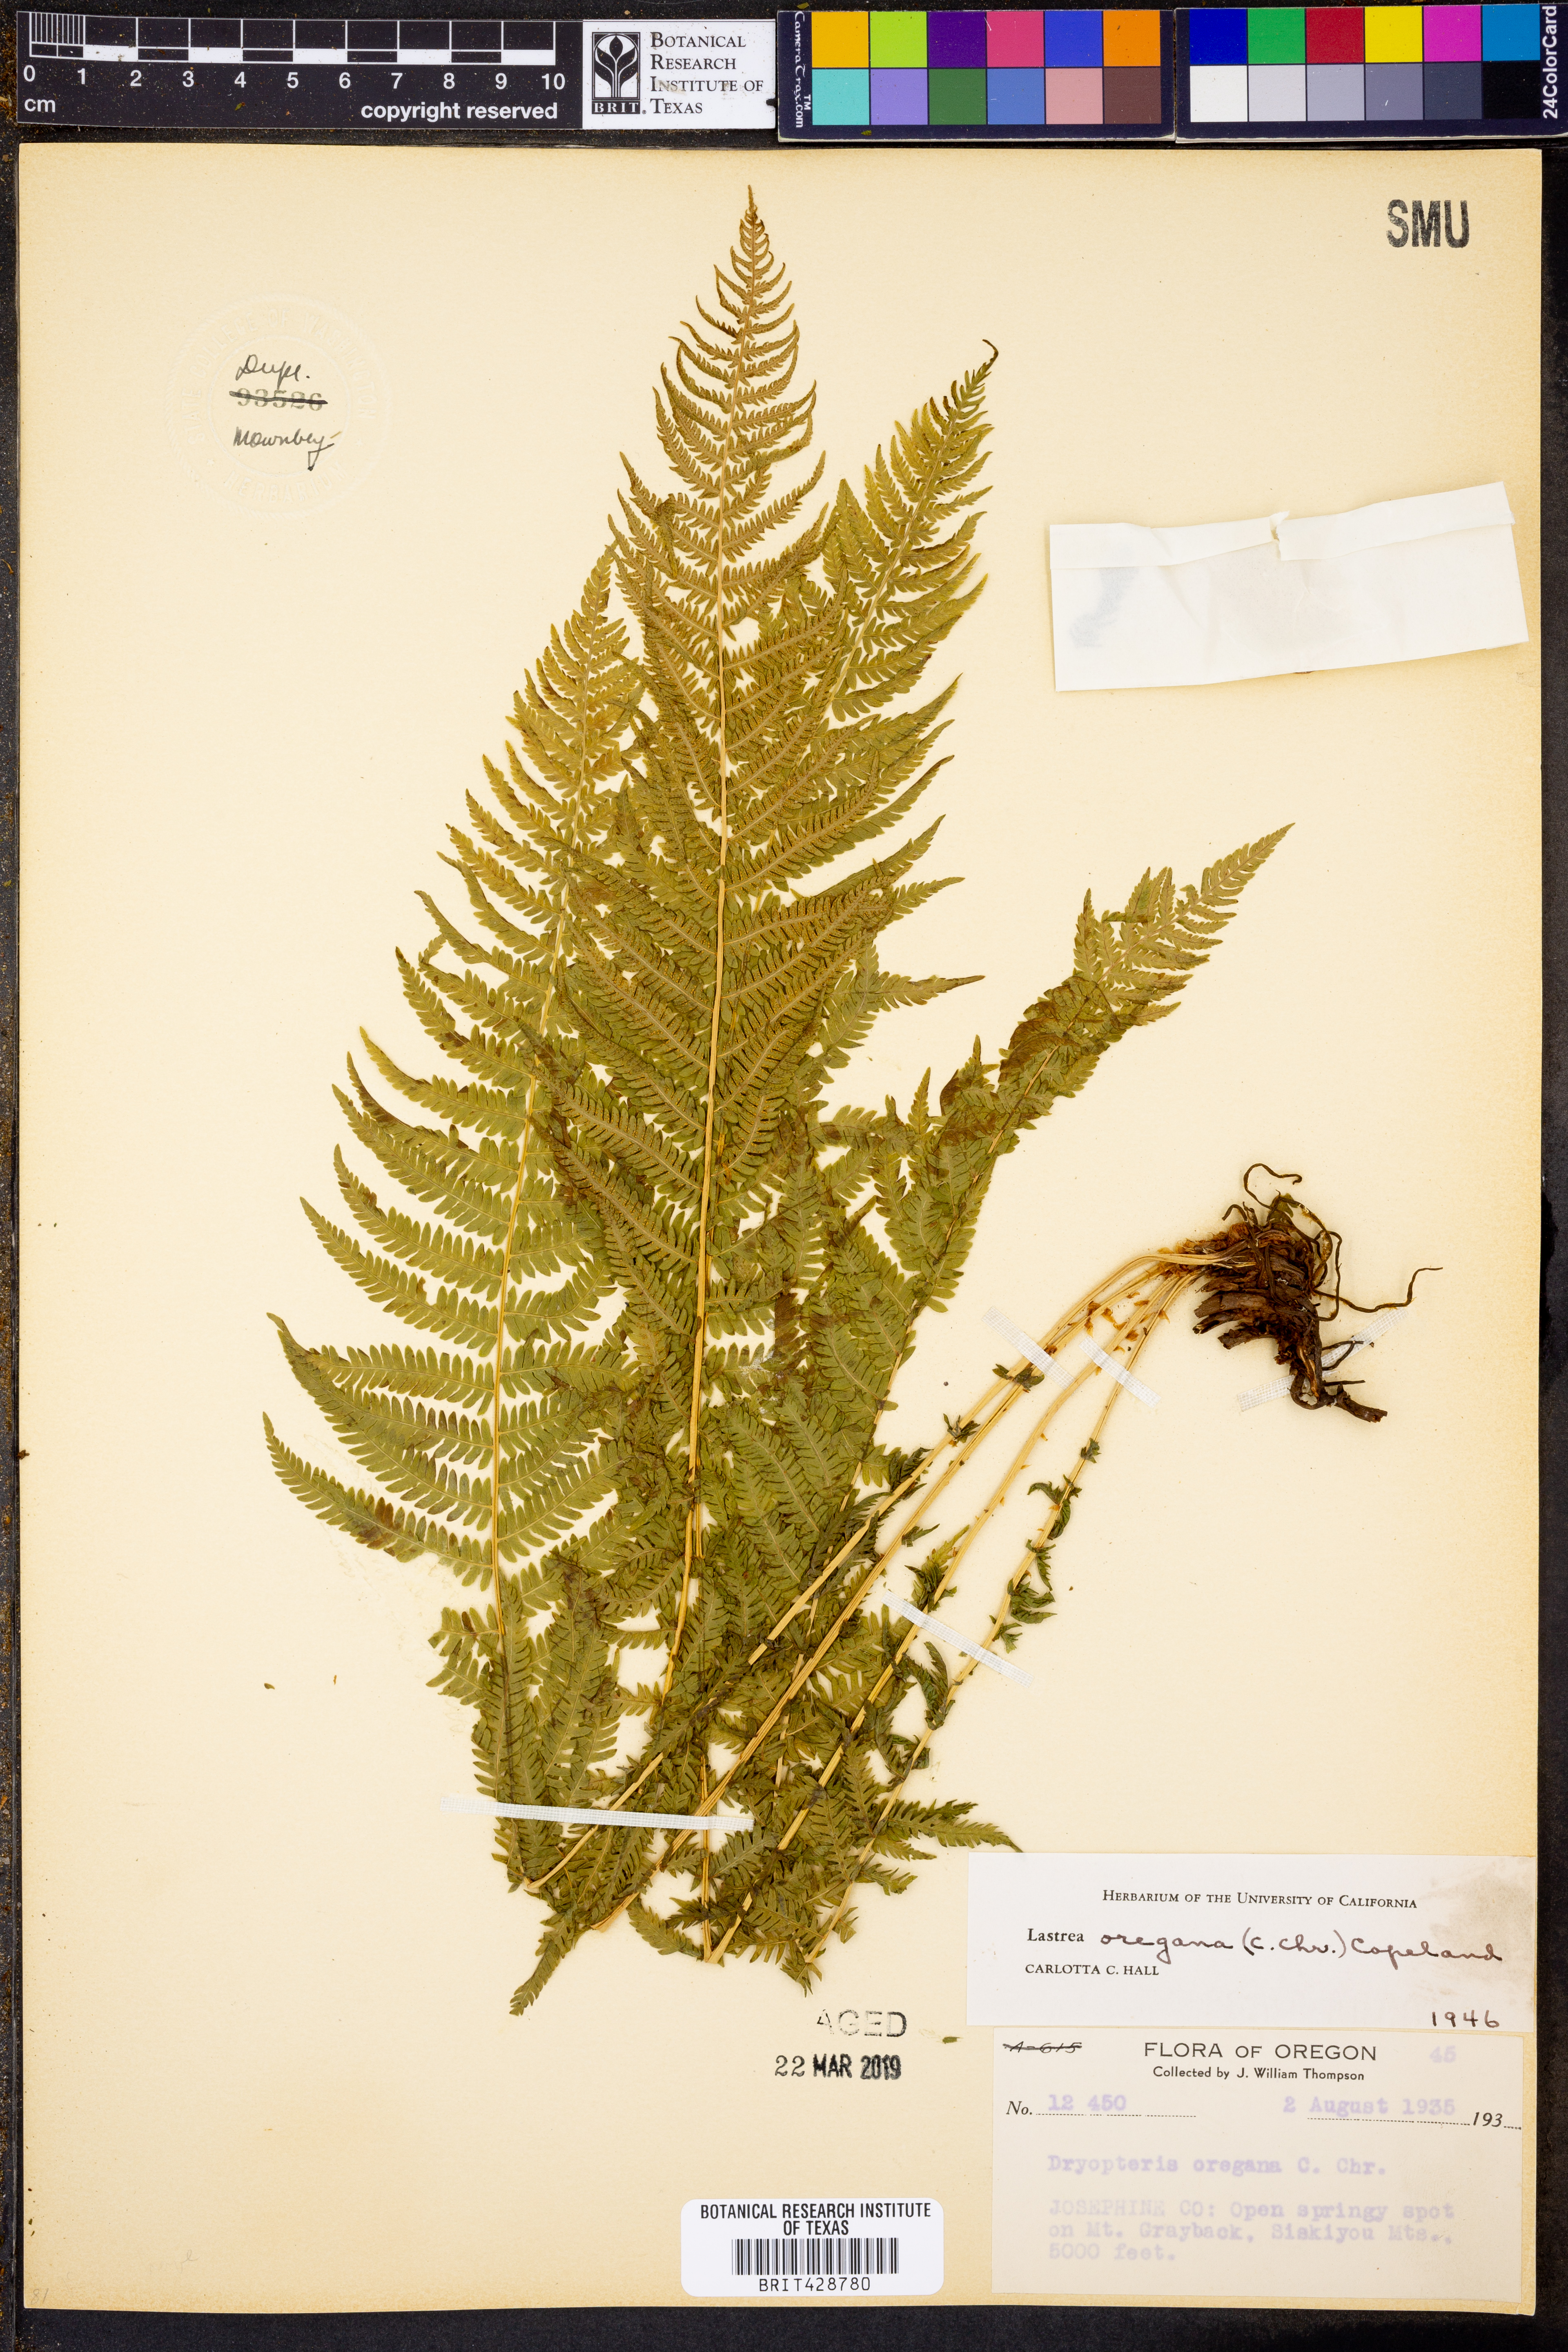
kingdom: Plantae
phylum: Tracheophyta
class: Polypodiopsida
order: Polypodiales
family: Thelypteridaceae
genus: Amauropelta
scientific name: Amauropelta nevadensis
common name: Nevada marsh fern
